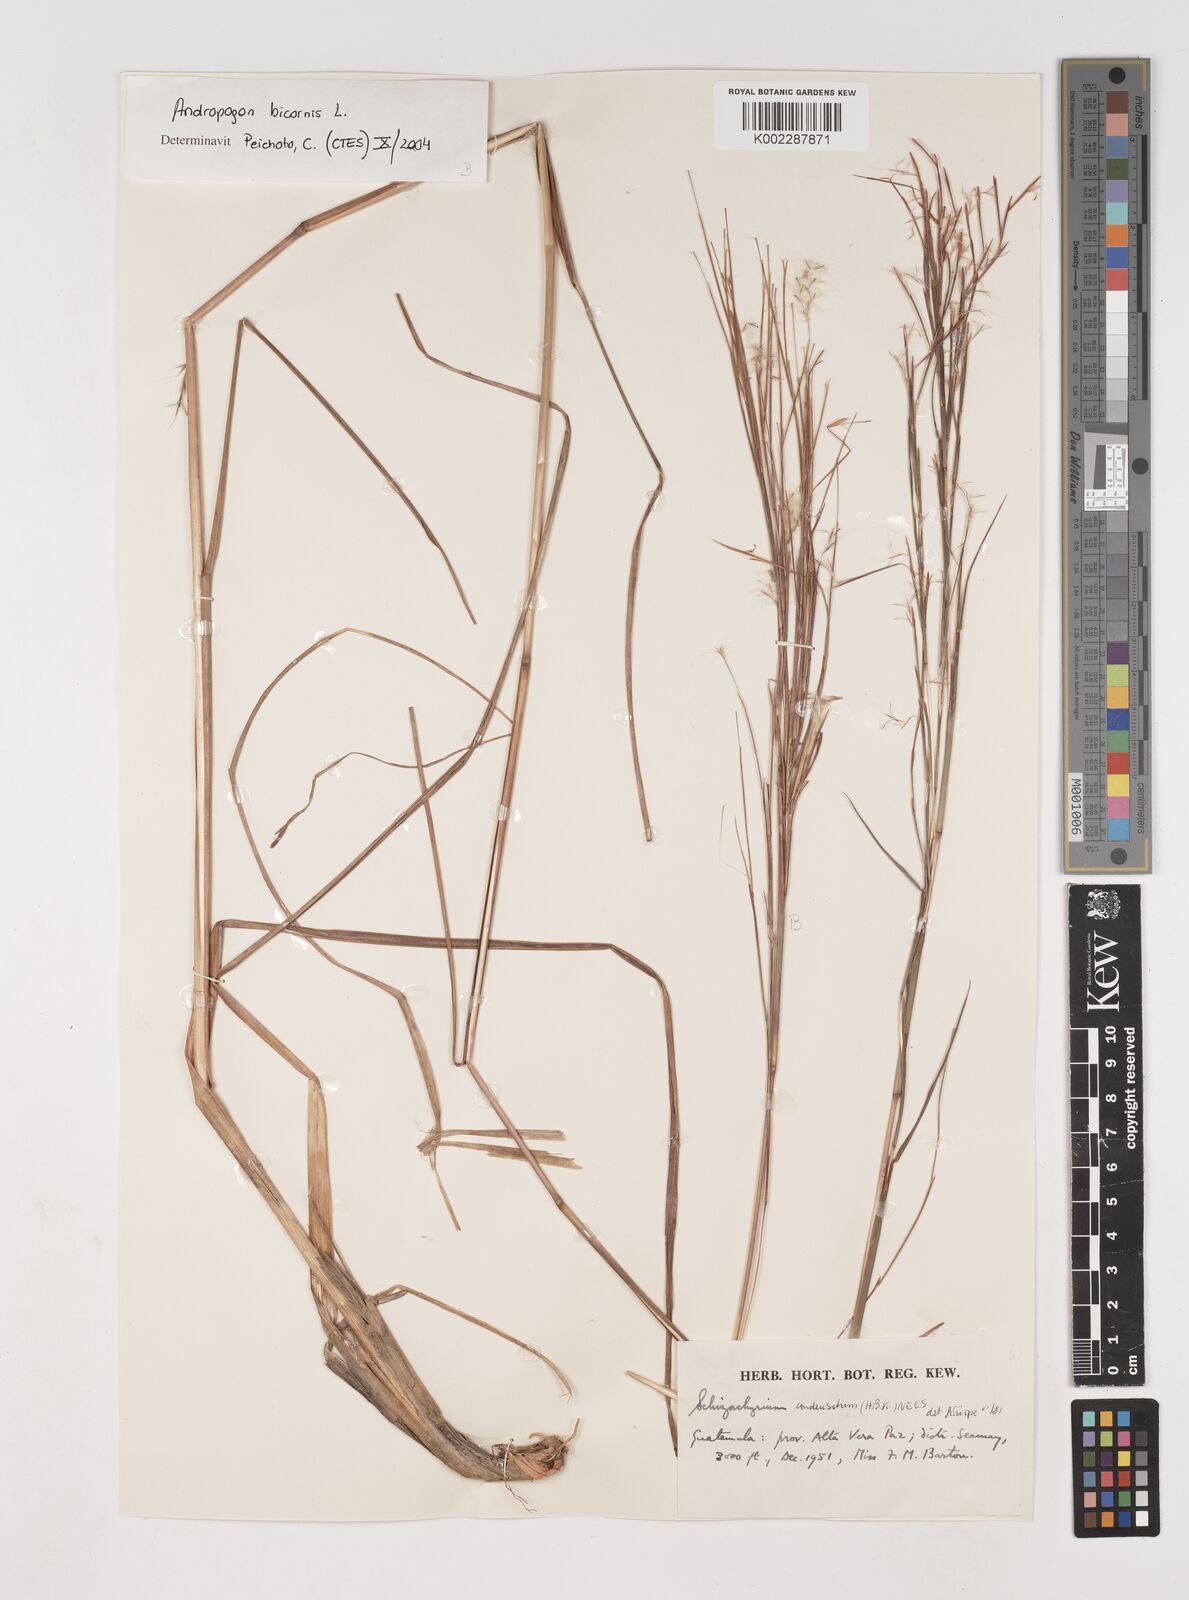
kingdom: Plantae
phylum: Tracheophyta
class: Liliopsida
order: Poales
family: Poaceae
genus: Schizachyrium
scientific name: Schizachyrium condensatum
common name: Bush beardgrass
